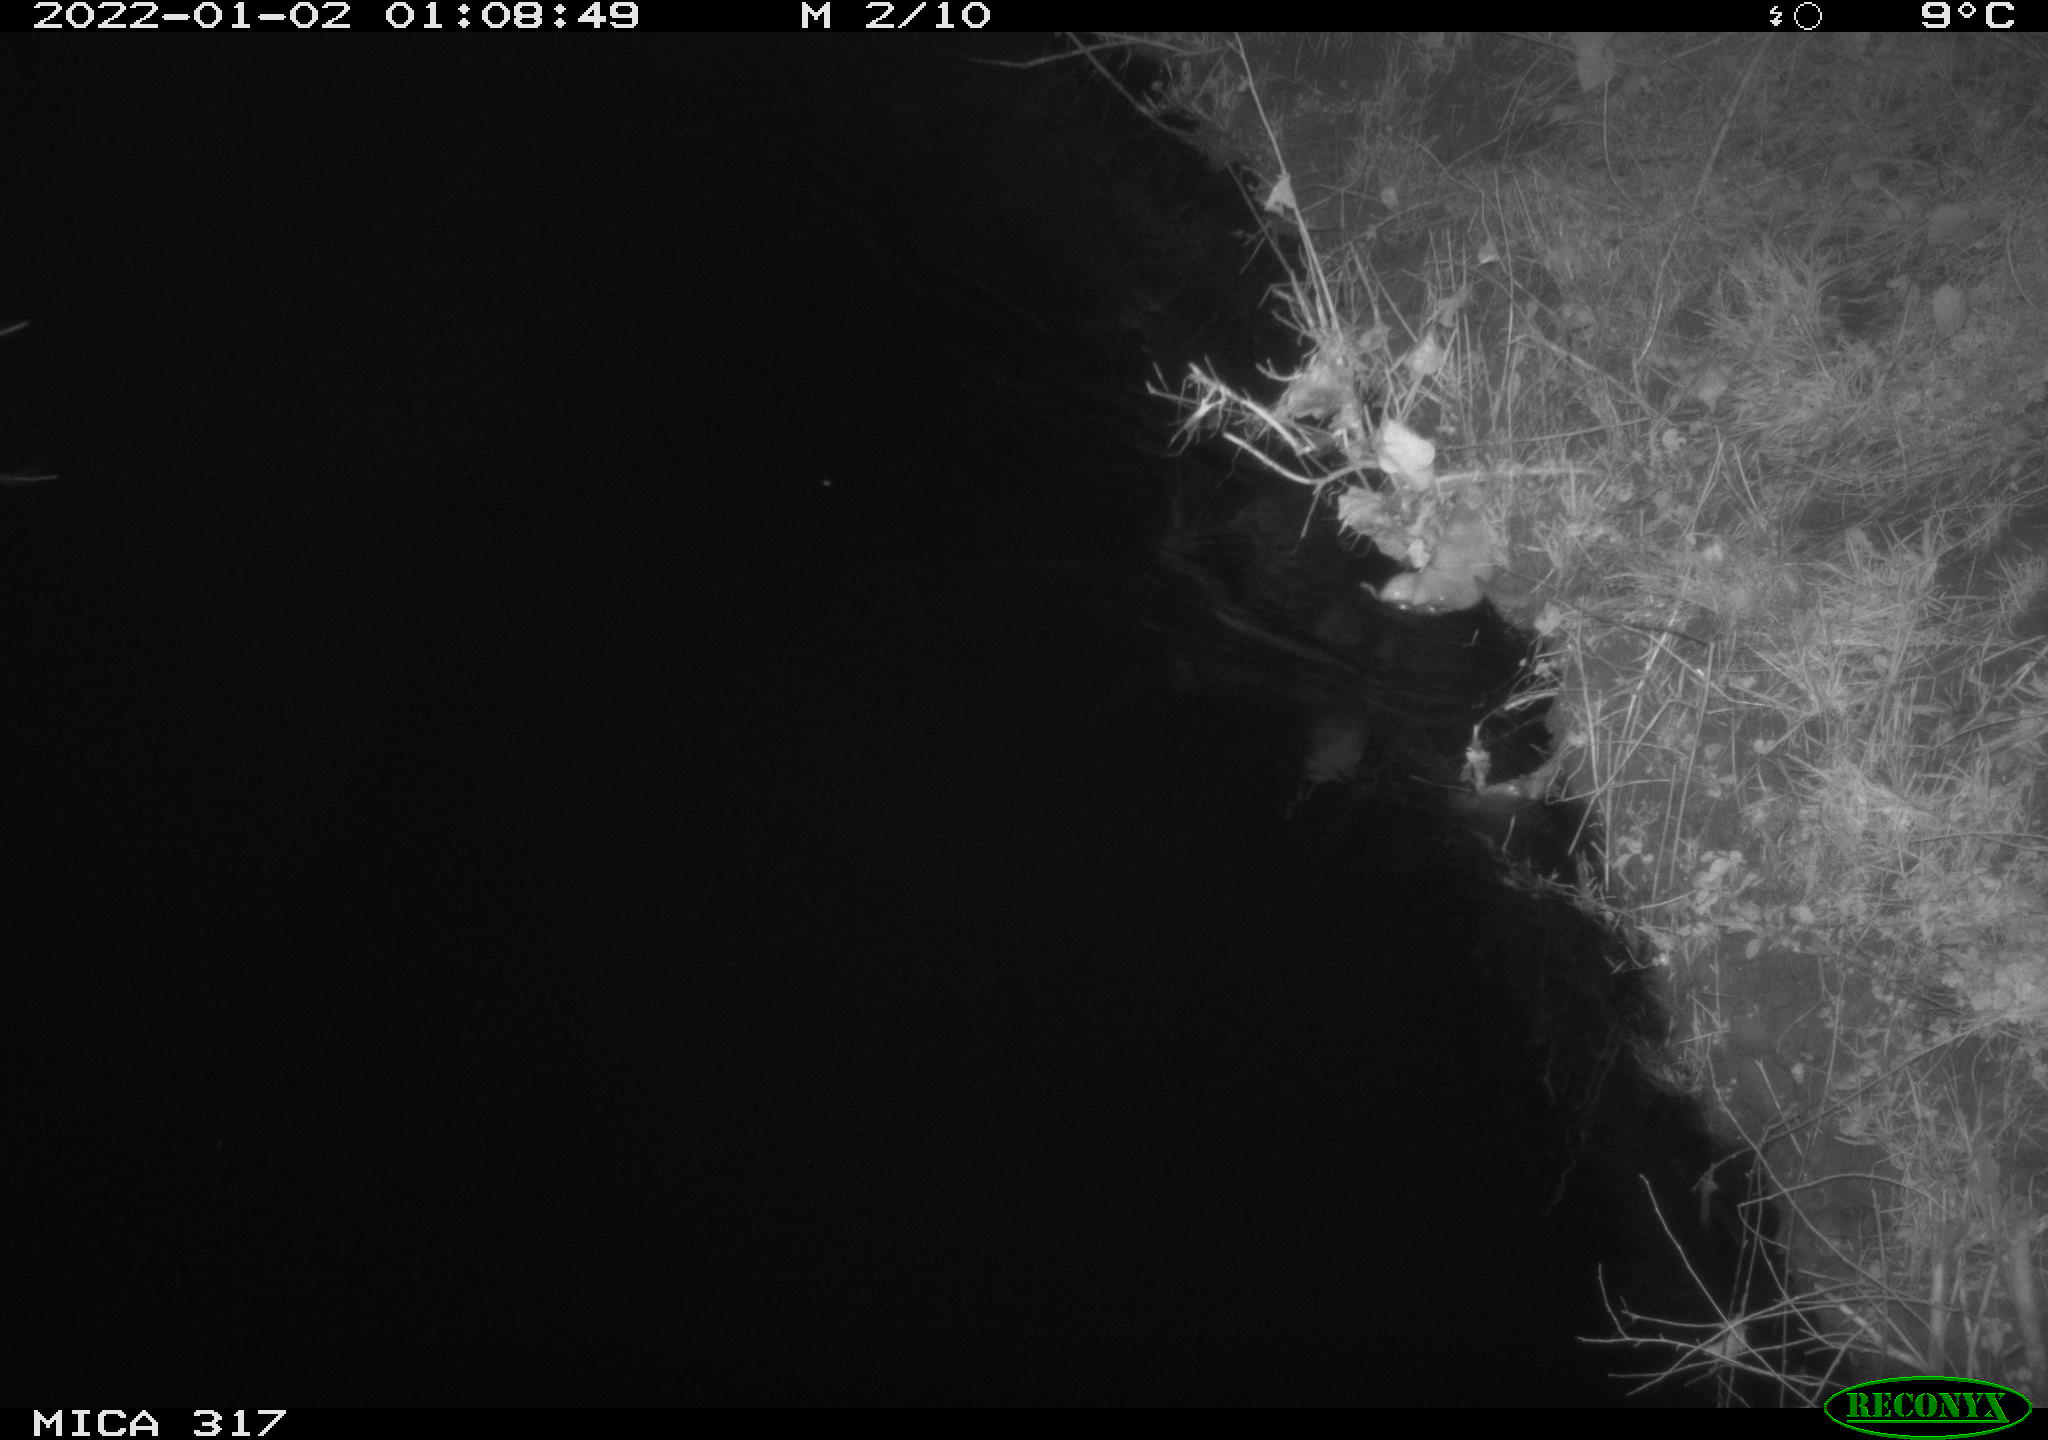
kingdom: Animalia
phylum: Chordata
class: Mammalia
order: Rodentia
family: Muridae
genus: Rattus
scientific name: Rattus norvegicus
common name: Brown rat
